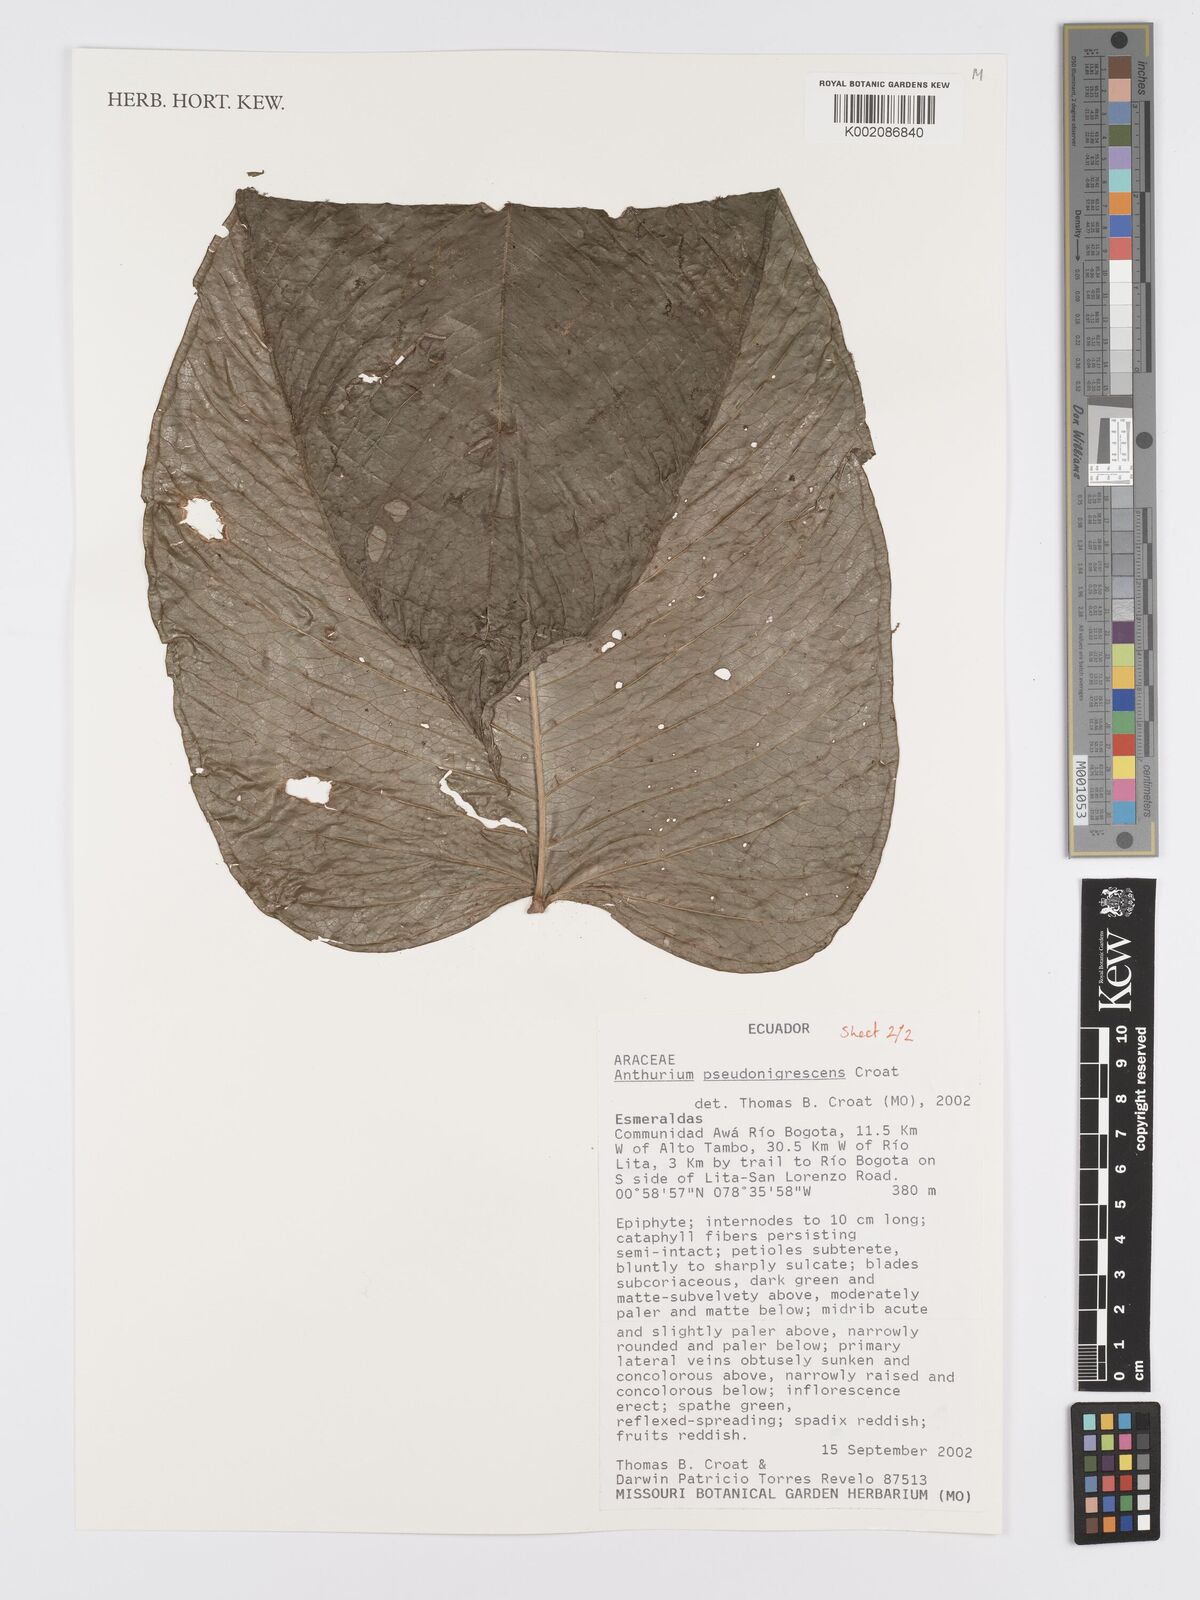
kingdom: Plantae
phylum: Tracheophyta
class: Liliopsida
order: Alismatales
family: Araceae
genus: Anthurium
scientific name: Anthurium pseudonigrescens
